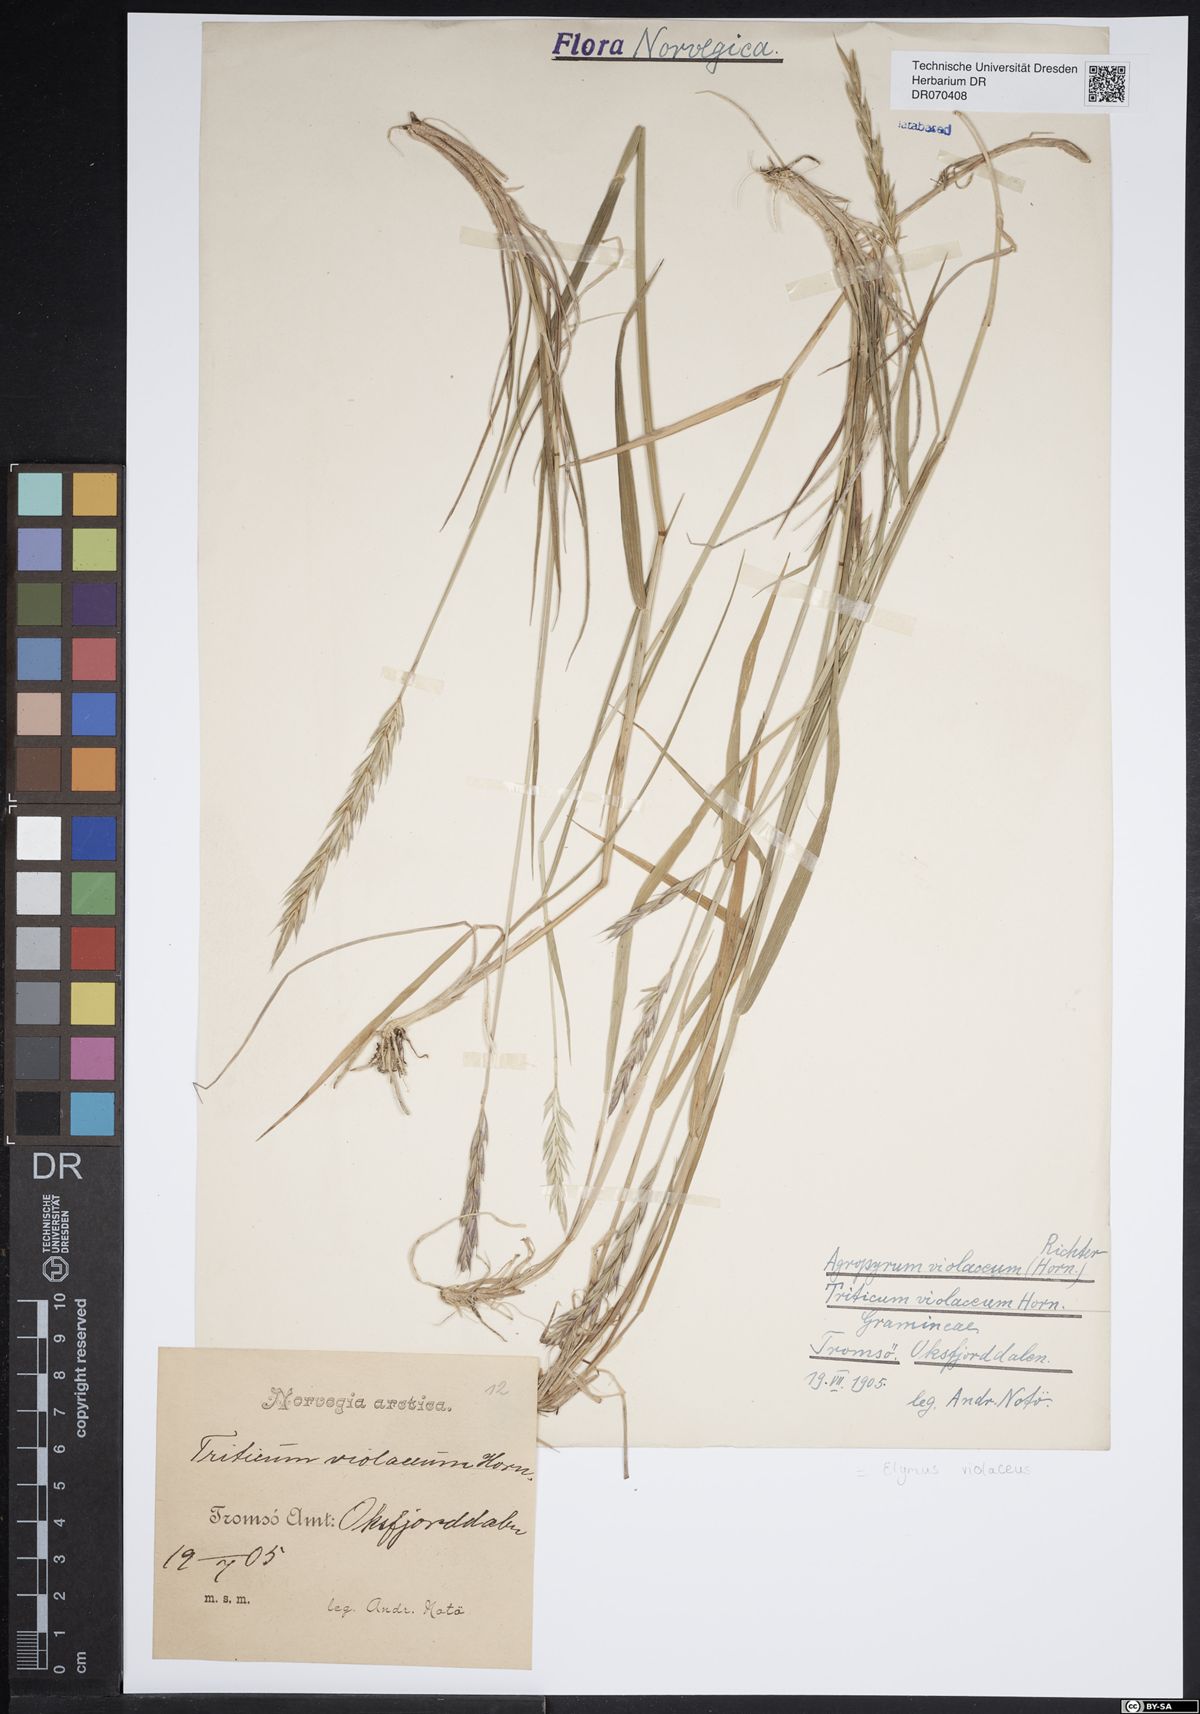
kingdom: Plantae
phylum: Tracheophyta
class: Liliopsida
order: Poales
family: Poaceae
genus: Elymus
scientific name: Elymus violaceus
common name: Arctic wheatgrass
